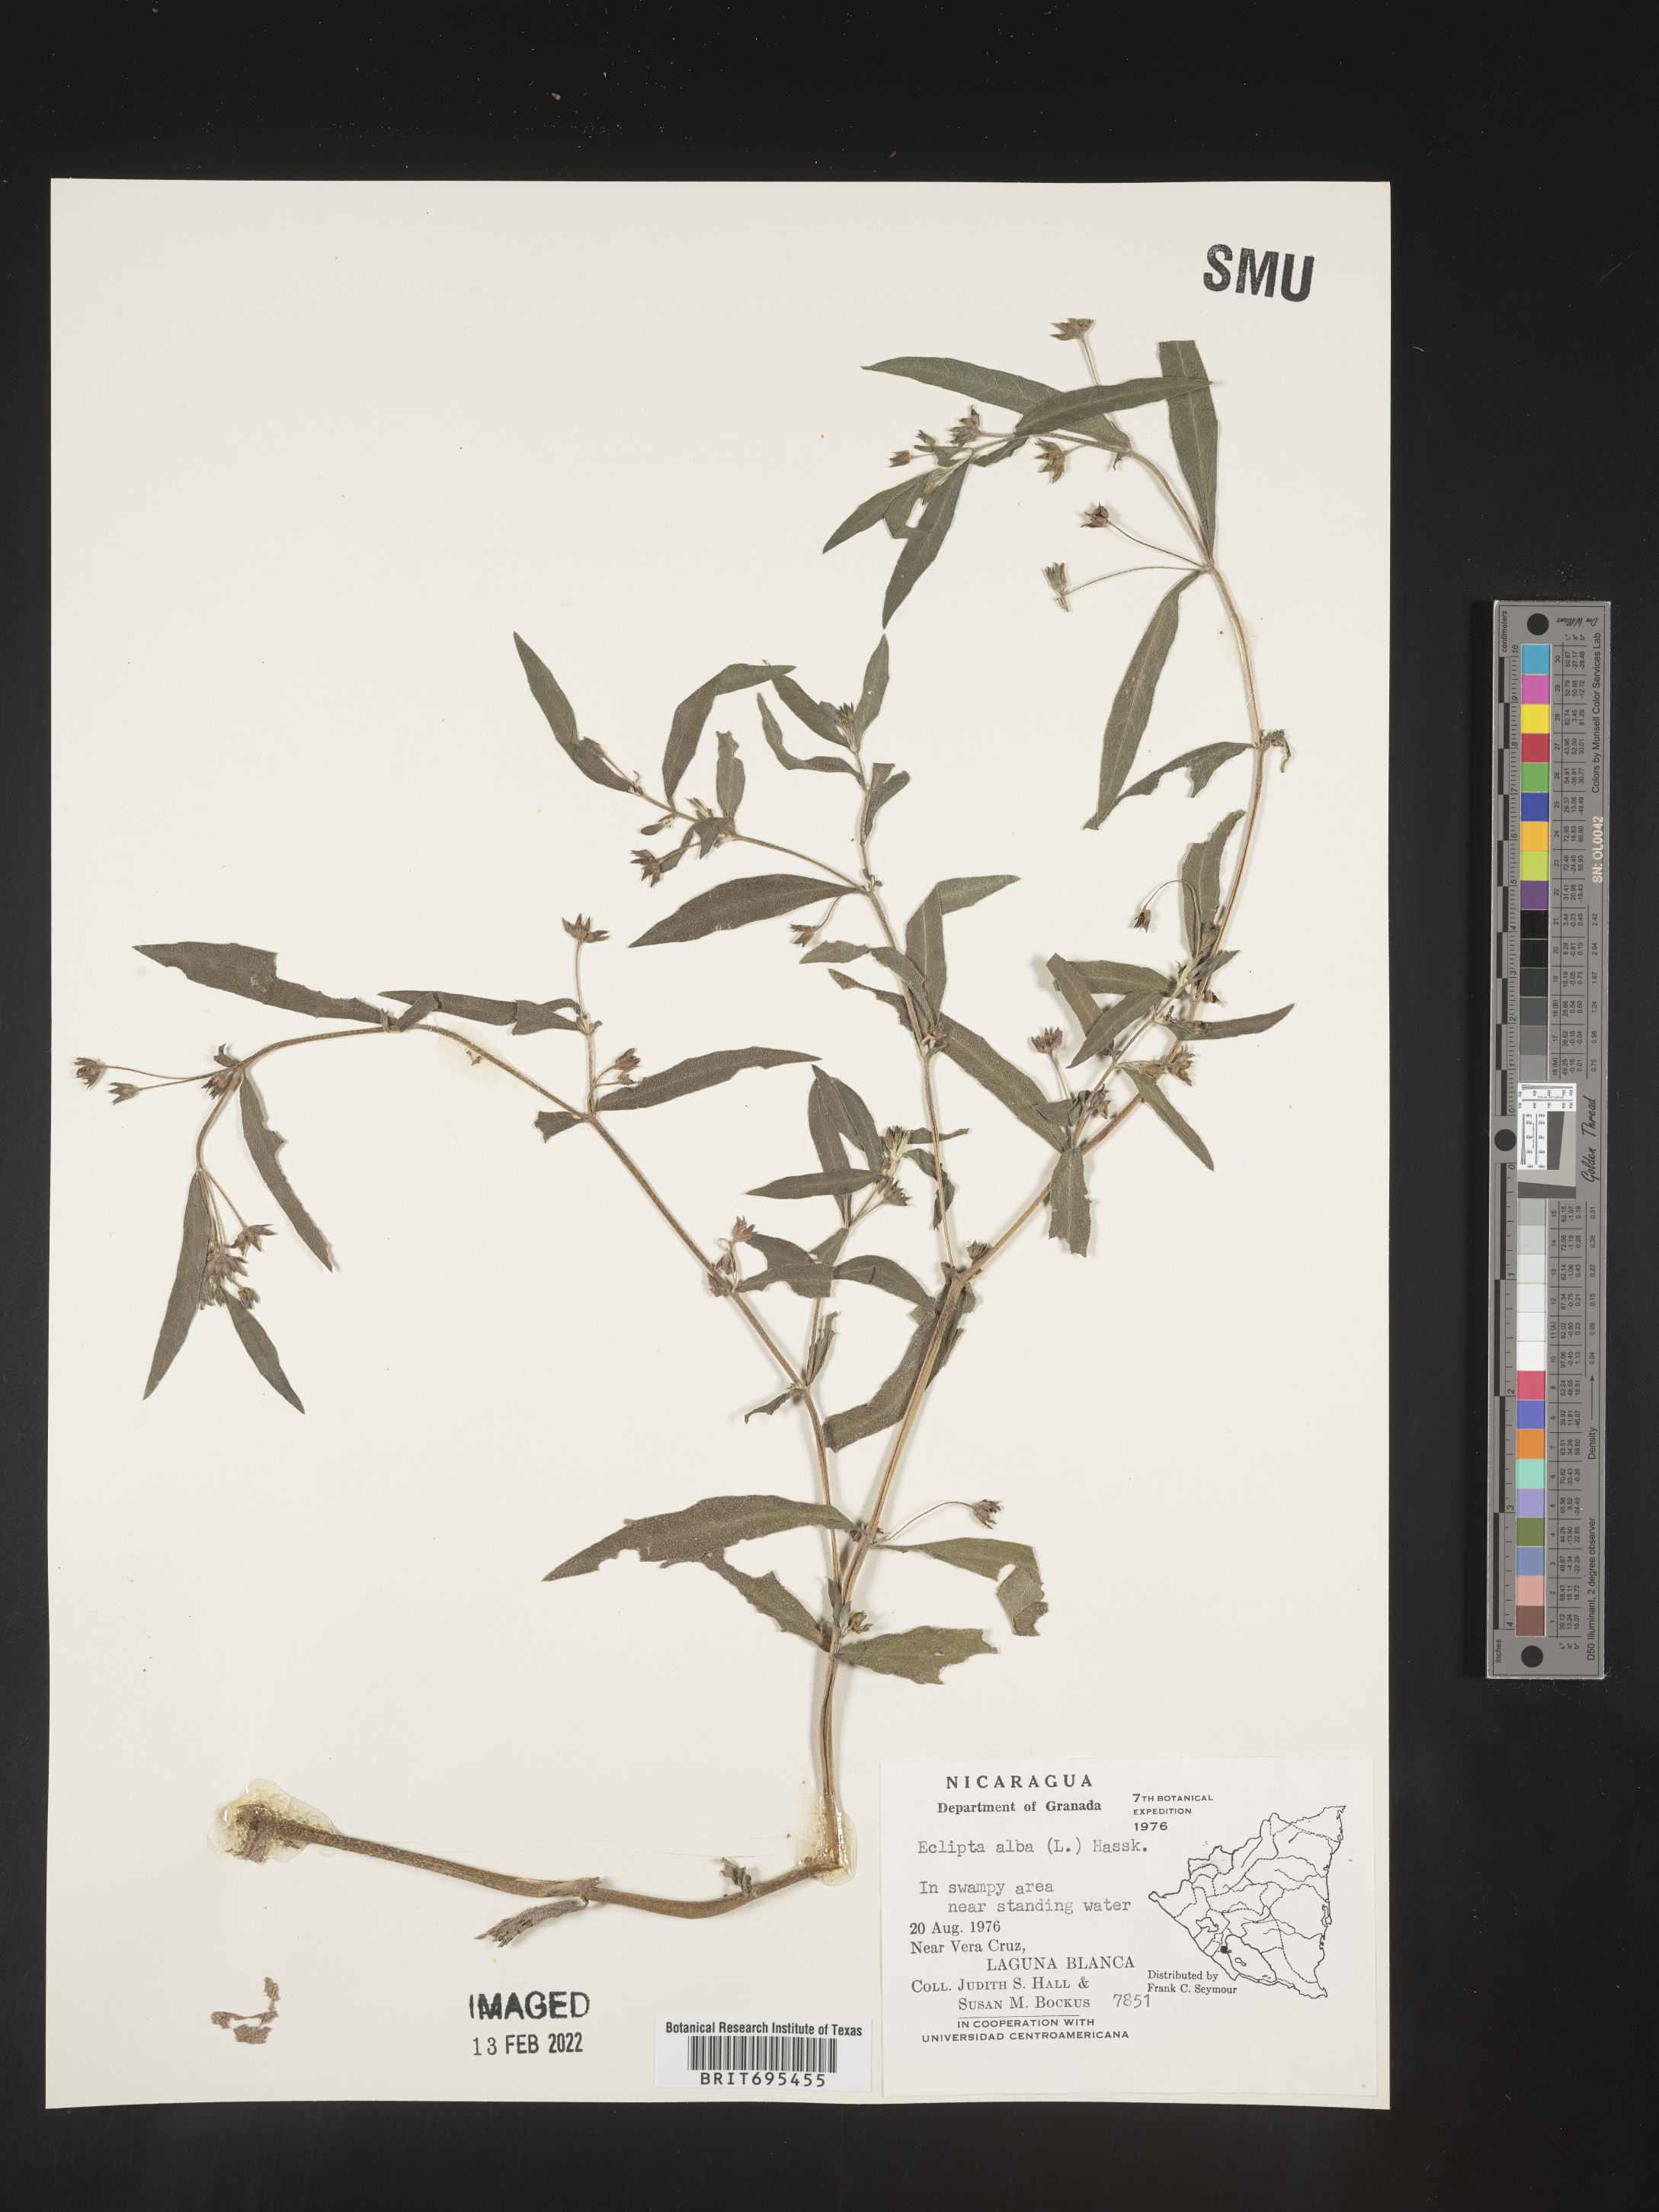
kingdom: Plantae
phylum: Tracheophyta
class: Magnoliopsida
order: Asterales
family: Asteraceae
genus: Eclipta
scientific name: Eclipta
